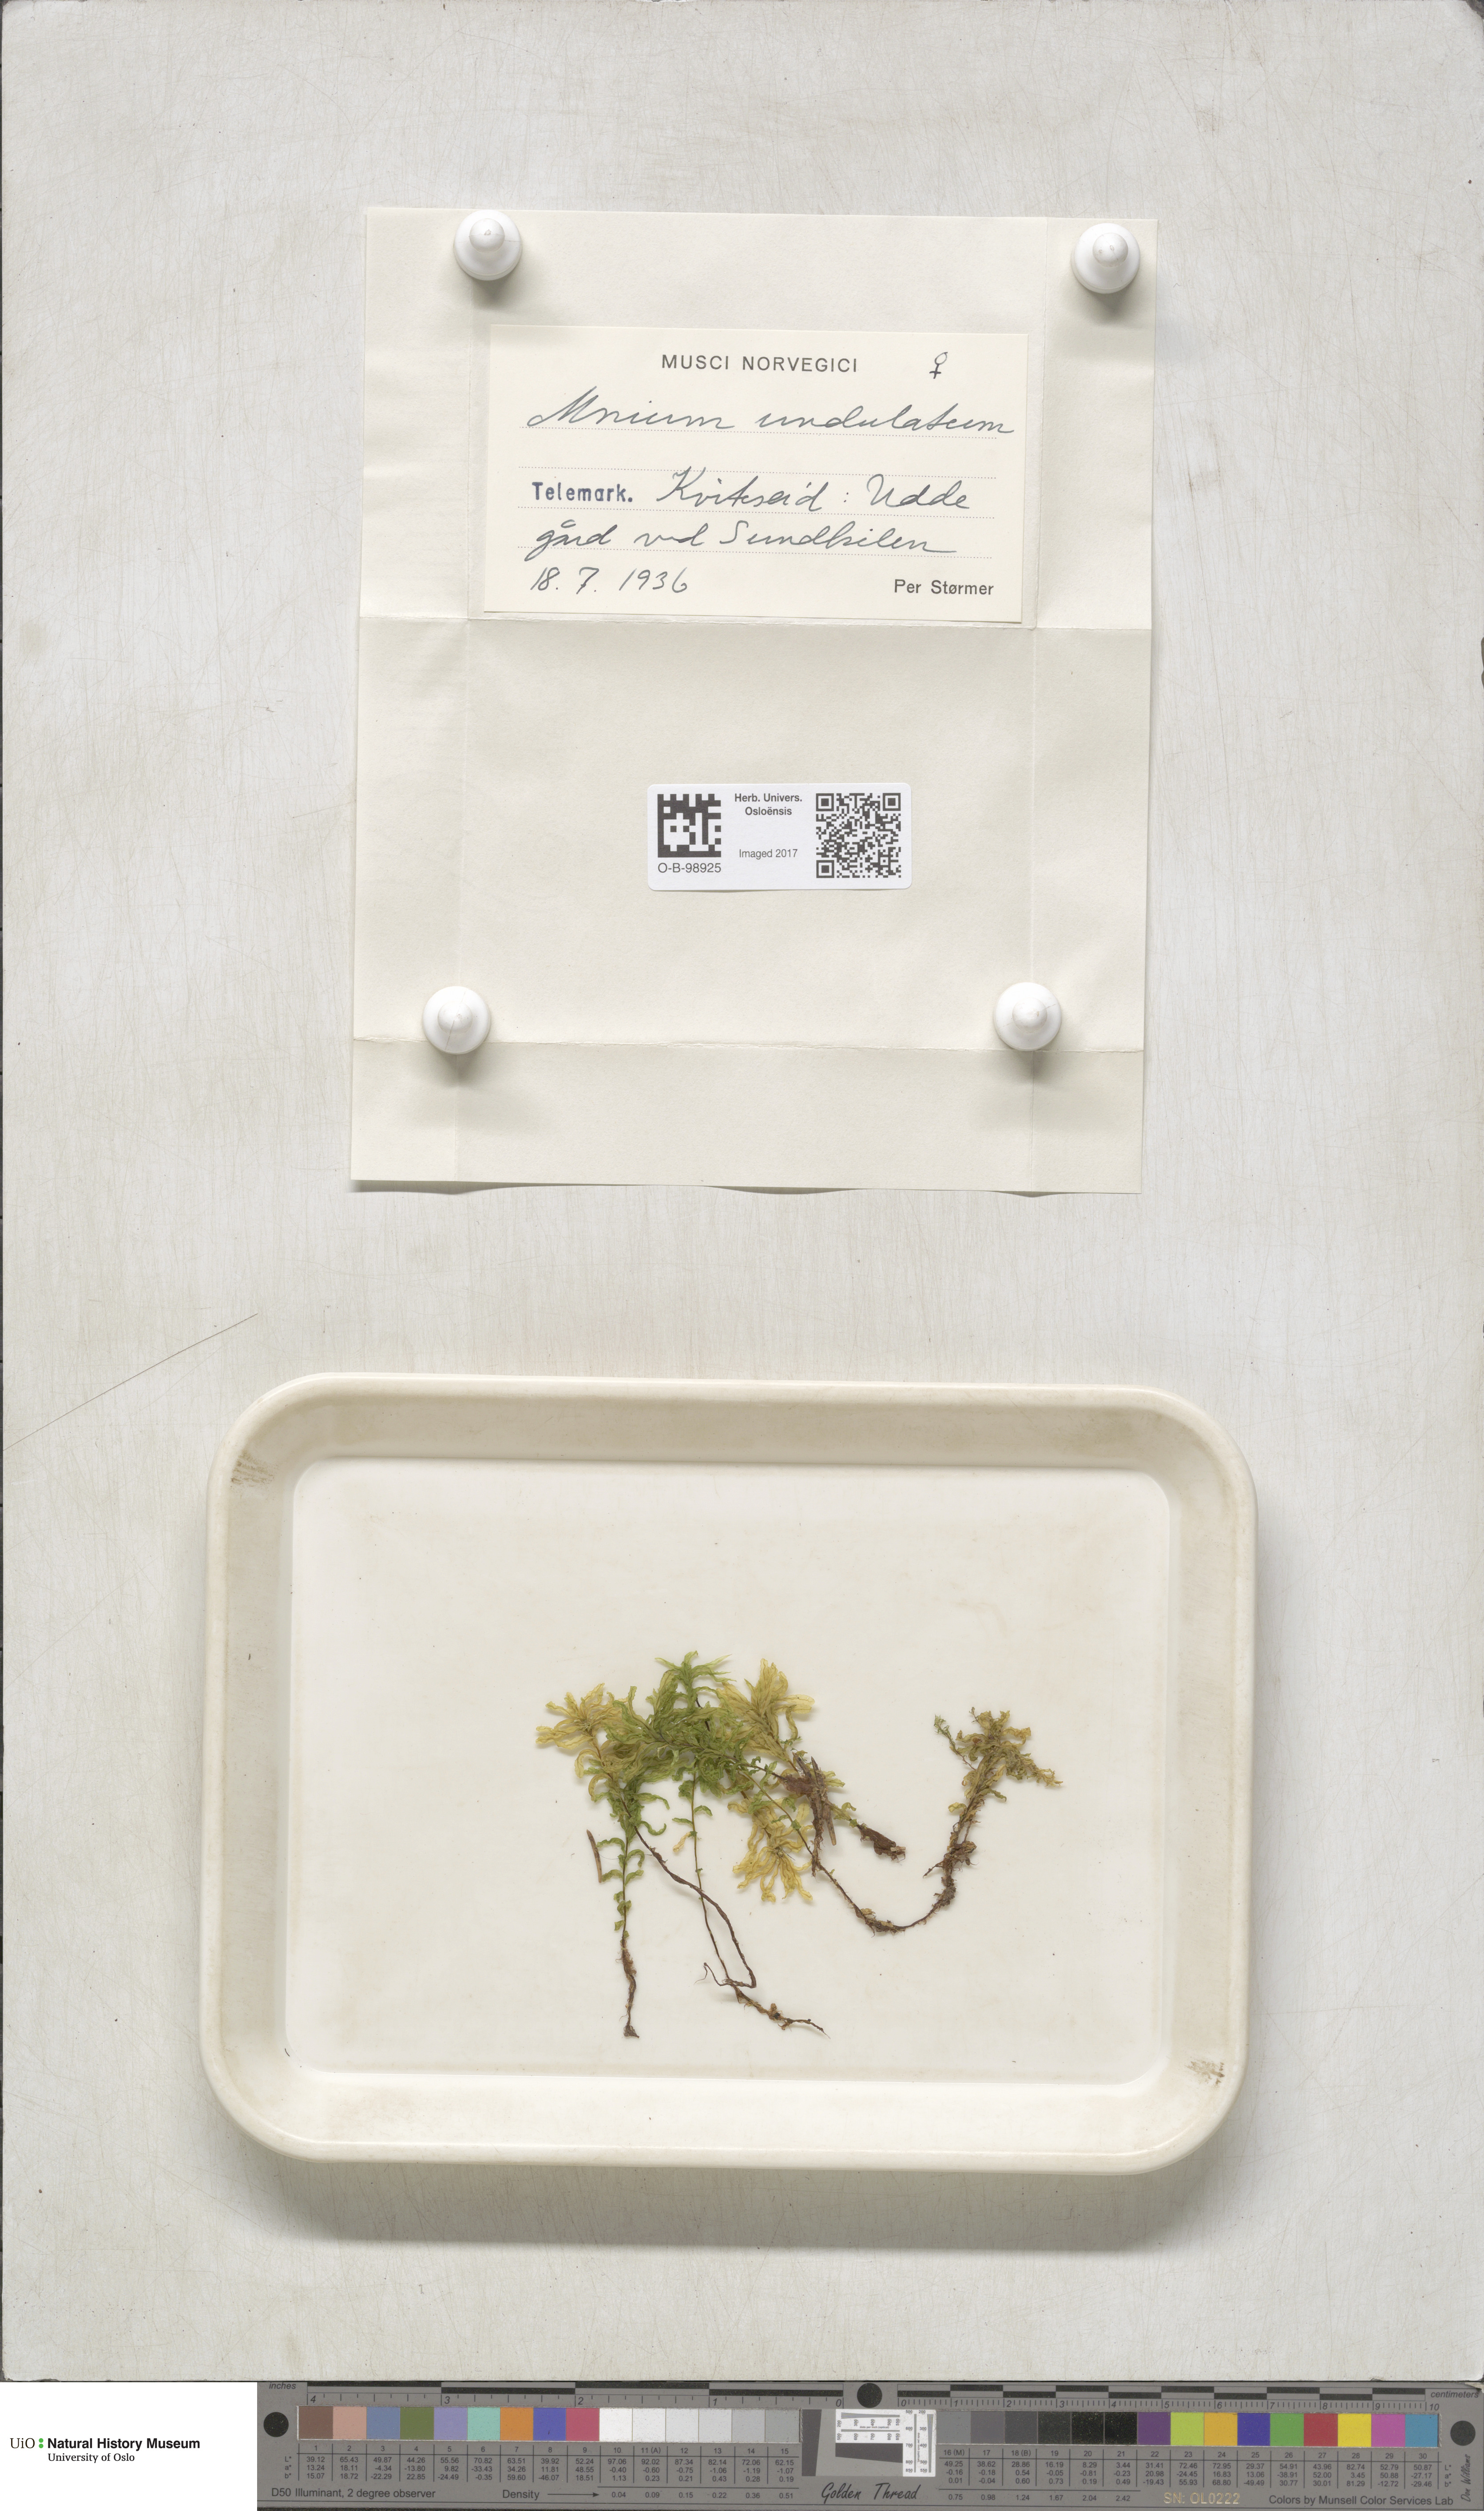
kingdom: Plantae
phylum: Bryophyta
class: Bryopsida
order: Bryales
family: Mniaceae
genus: Plagiomnium
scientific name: Plagiomnium undulatum
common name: Hart's-tongue thyme-moss
